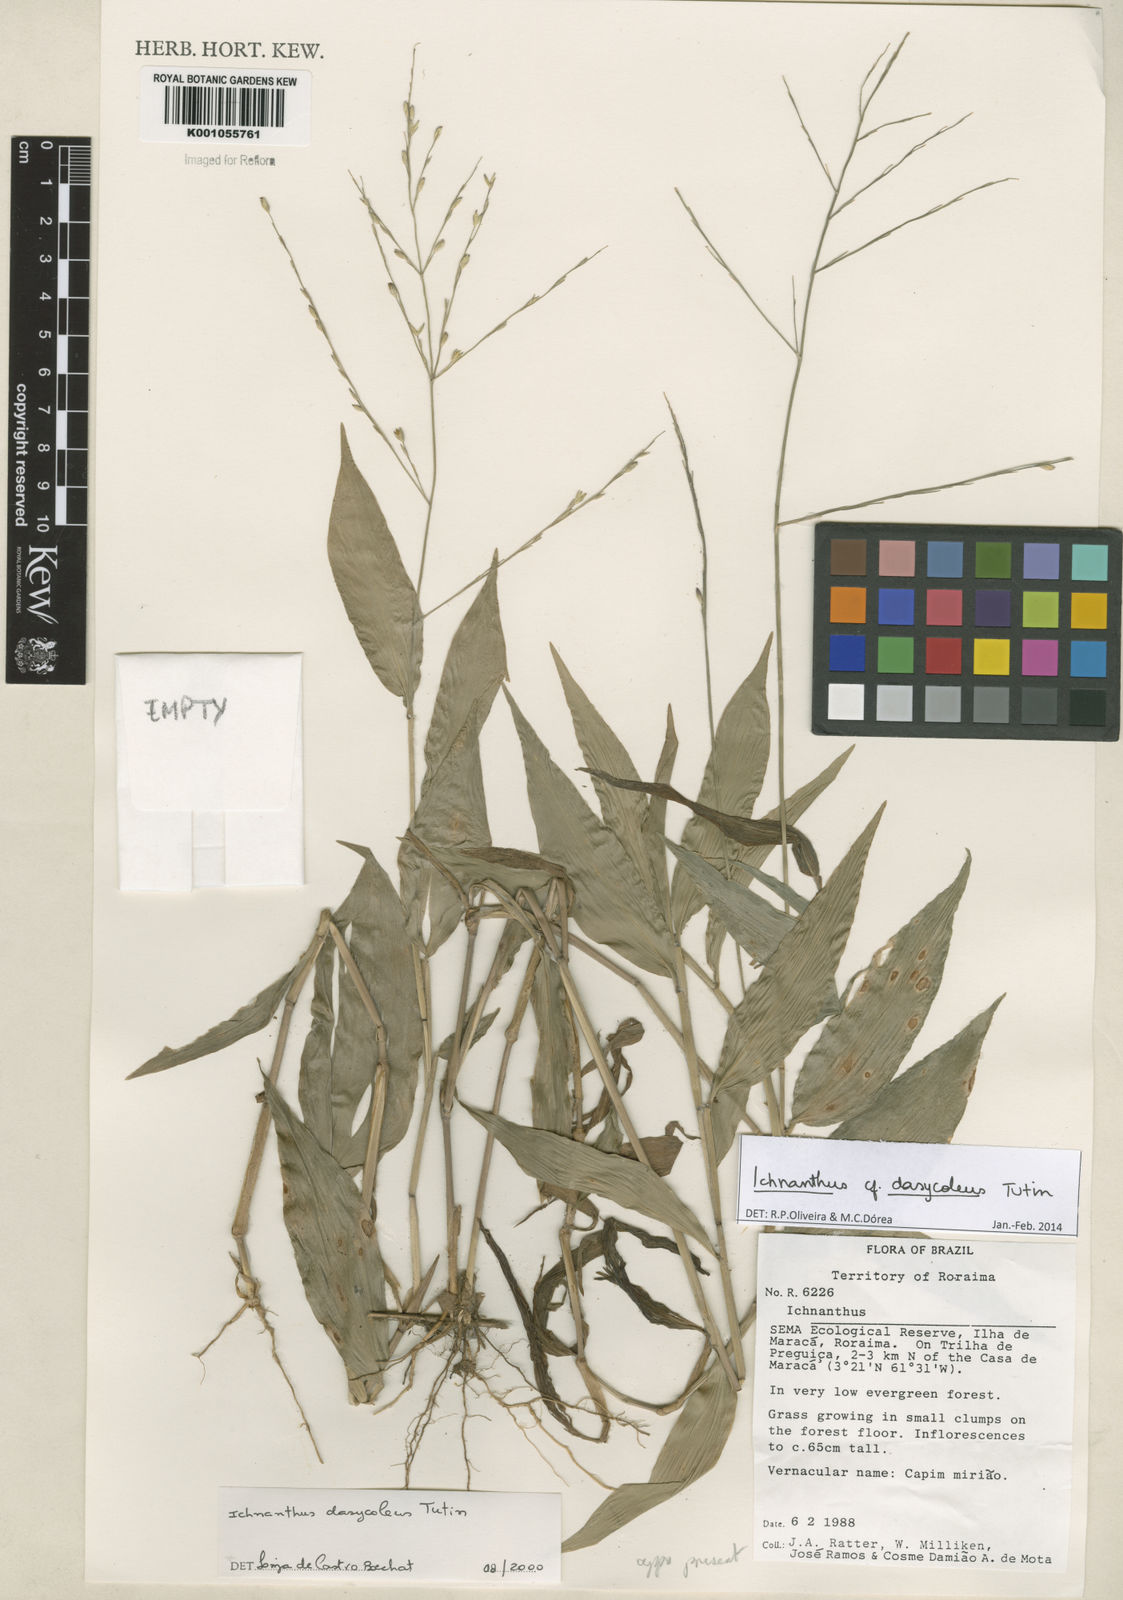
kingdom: Plantae
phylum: Tracheophyta
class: Liliopsida
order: Poales
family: Poaceae
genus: Ichnanthus
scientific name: Ichnanthus dasycoleus
